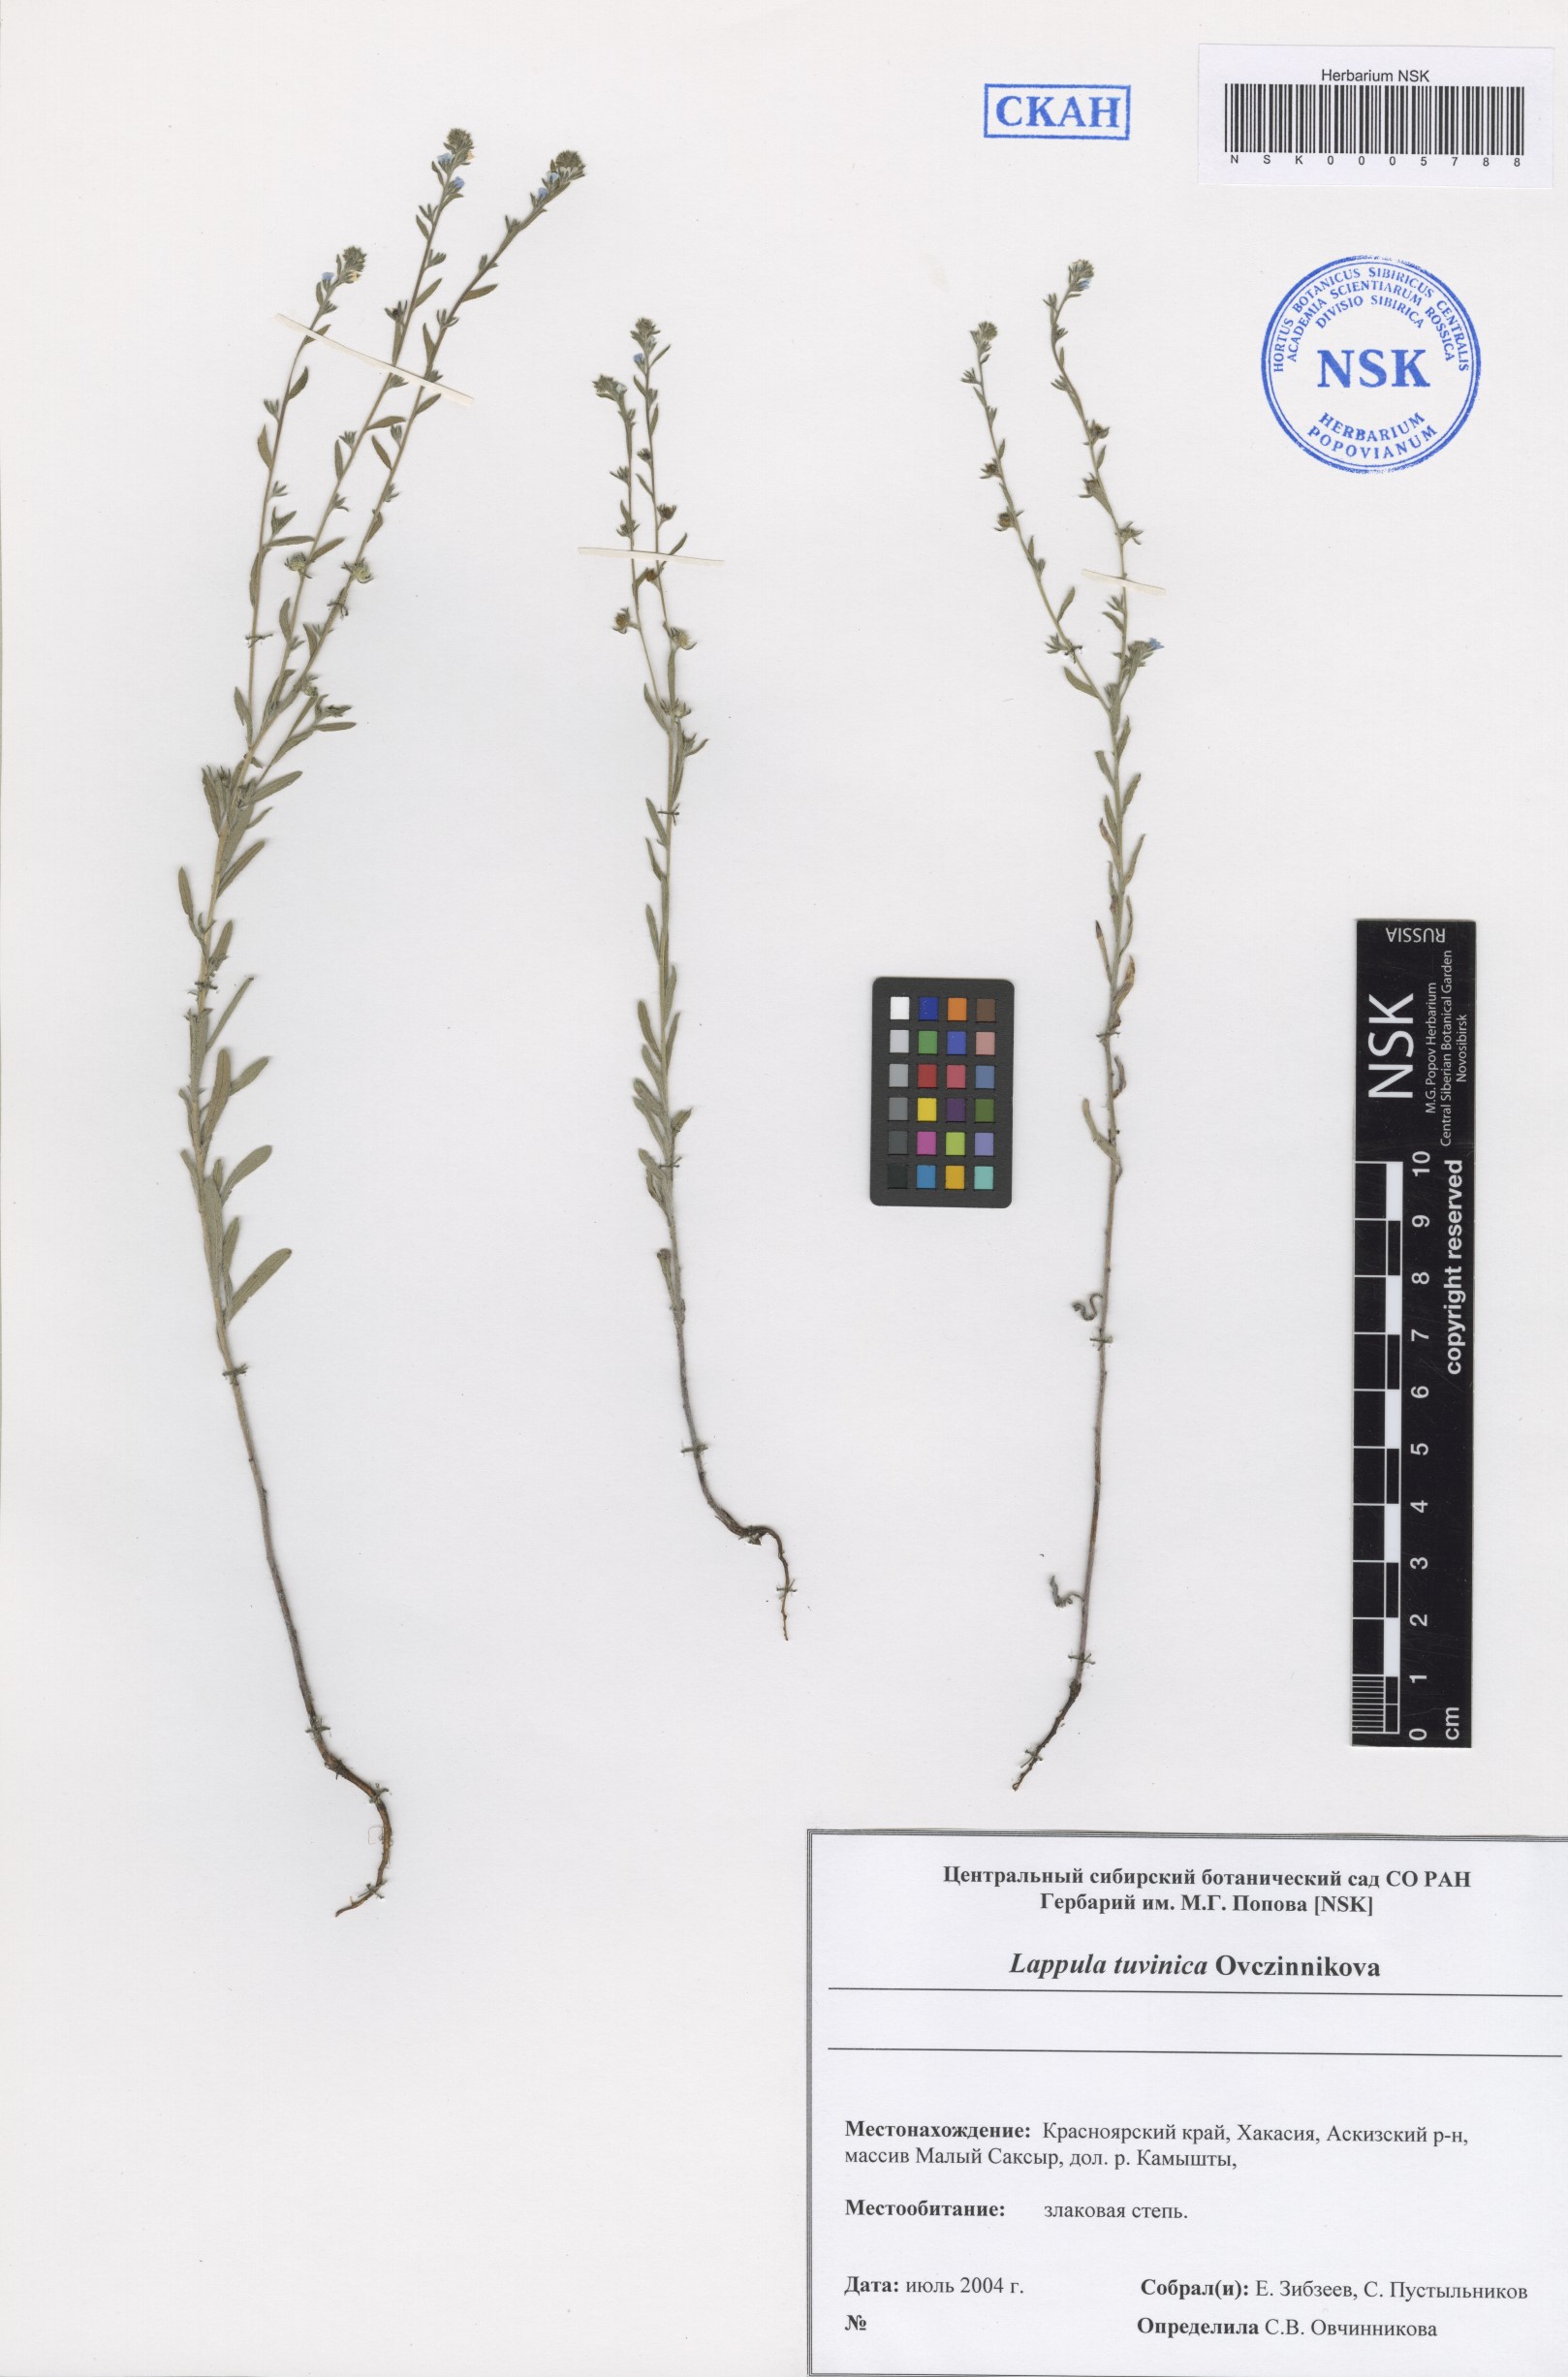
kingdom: Plantae
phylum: Tracheophyta
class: Magnoliopsida
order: Boraginales
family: Boraginaceae
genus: Lappula
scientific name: Lappula tuvinica
